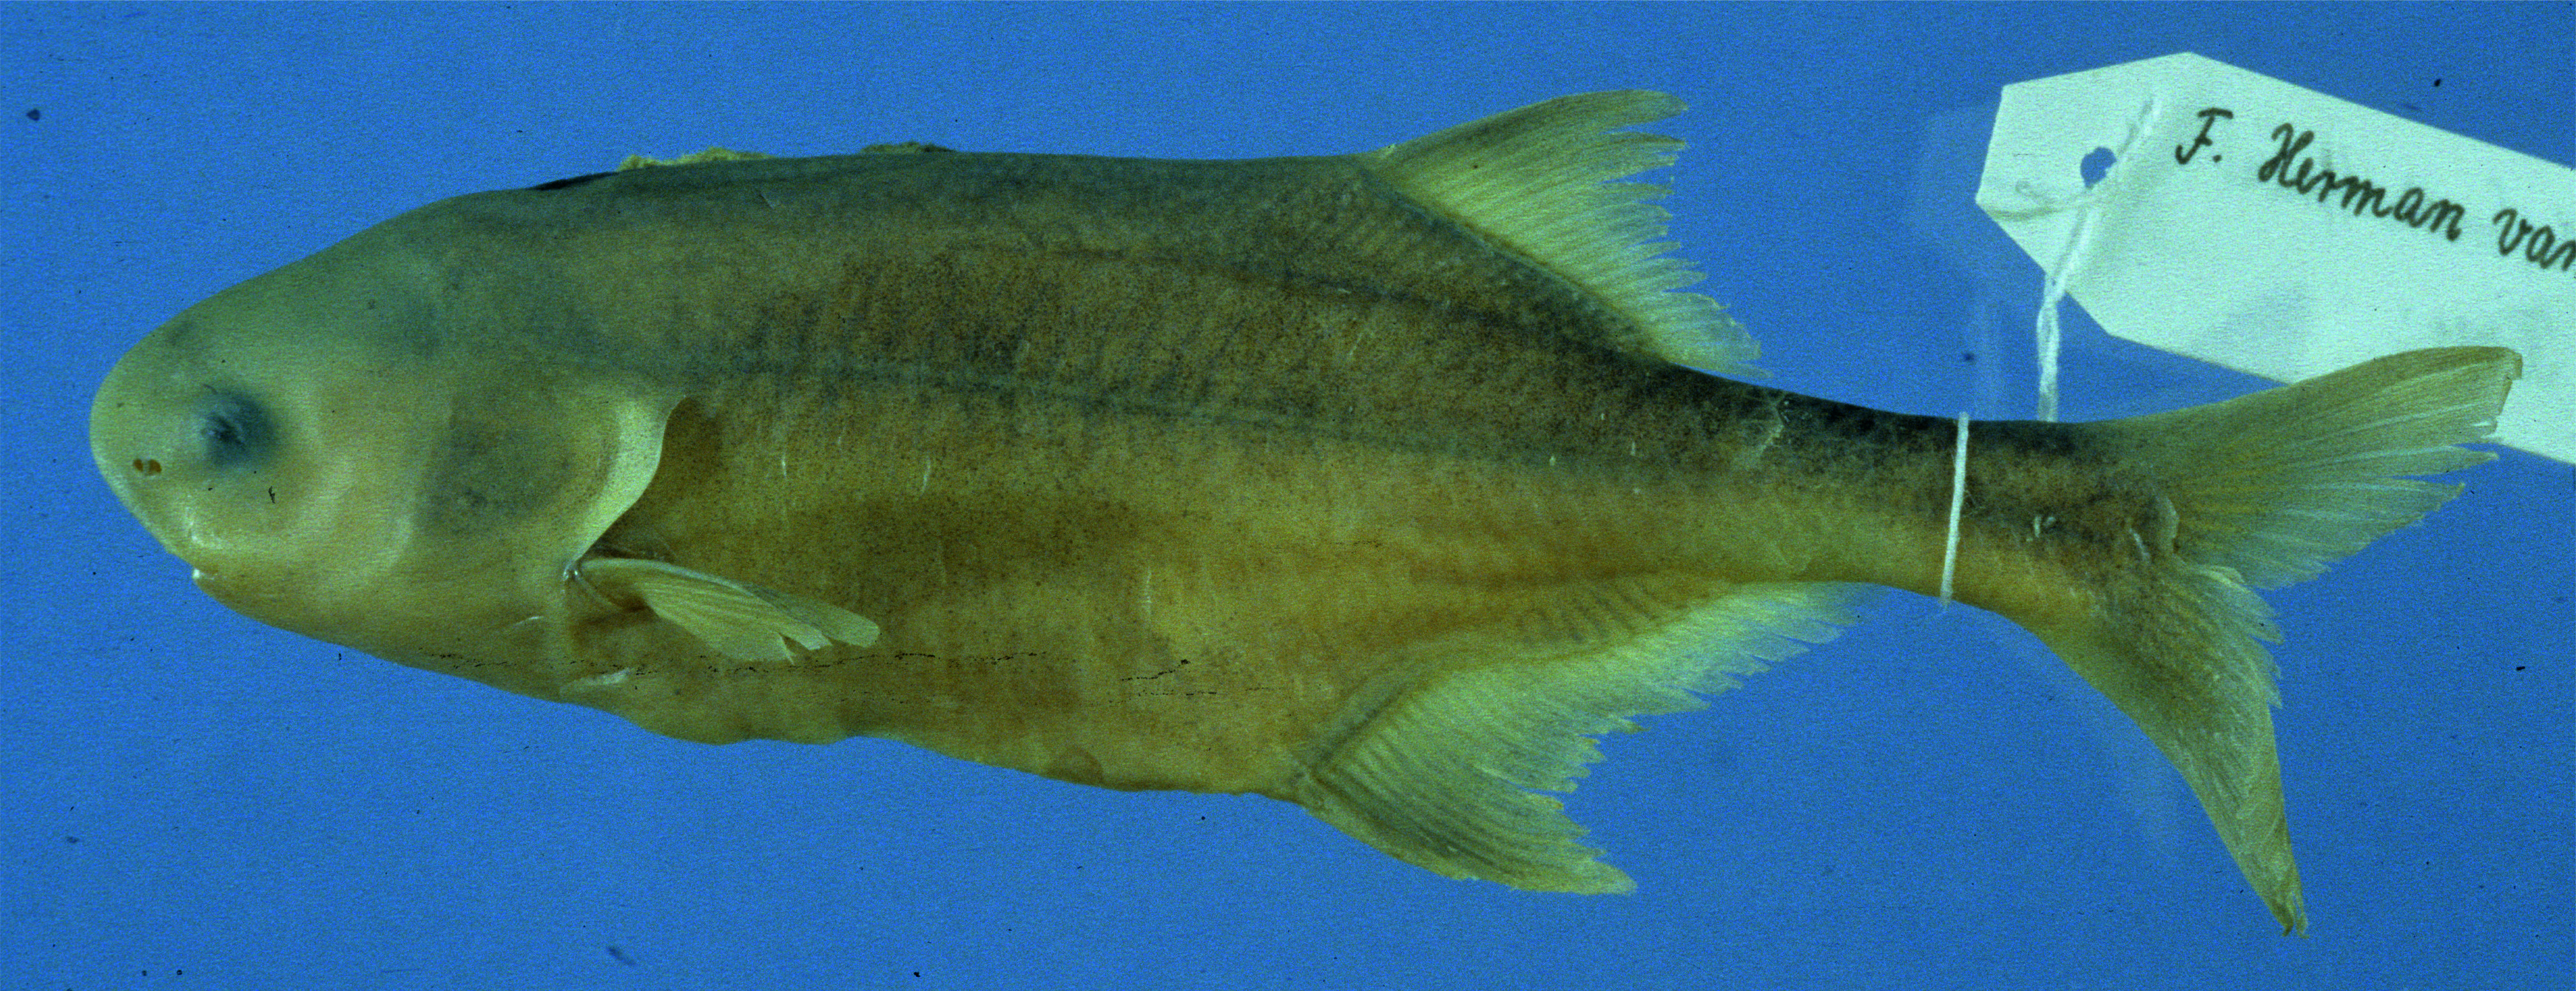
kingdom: Animalia
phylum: Chordata
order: Osteoglossiformes
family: Mormyridae
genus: Petrocephalus
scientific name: Petrocephalus wesselsi
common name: Southern churchill
